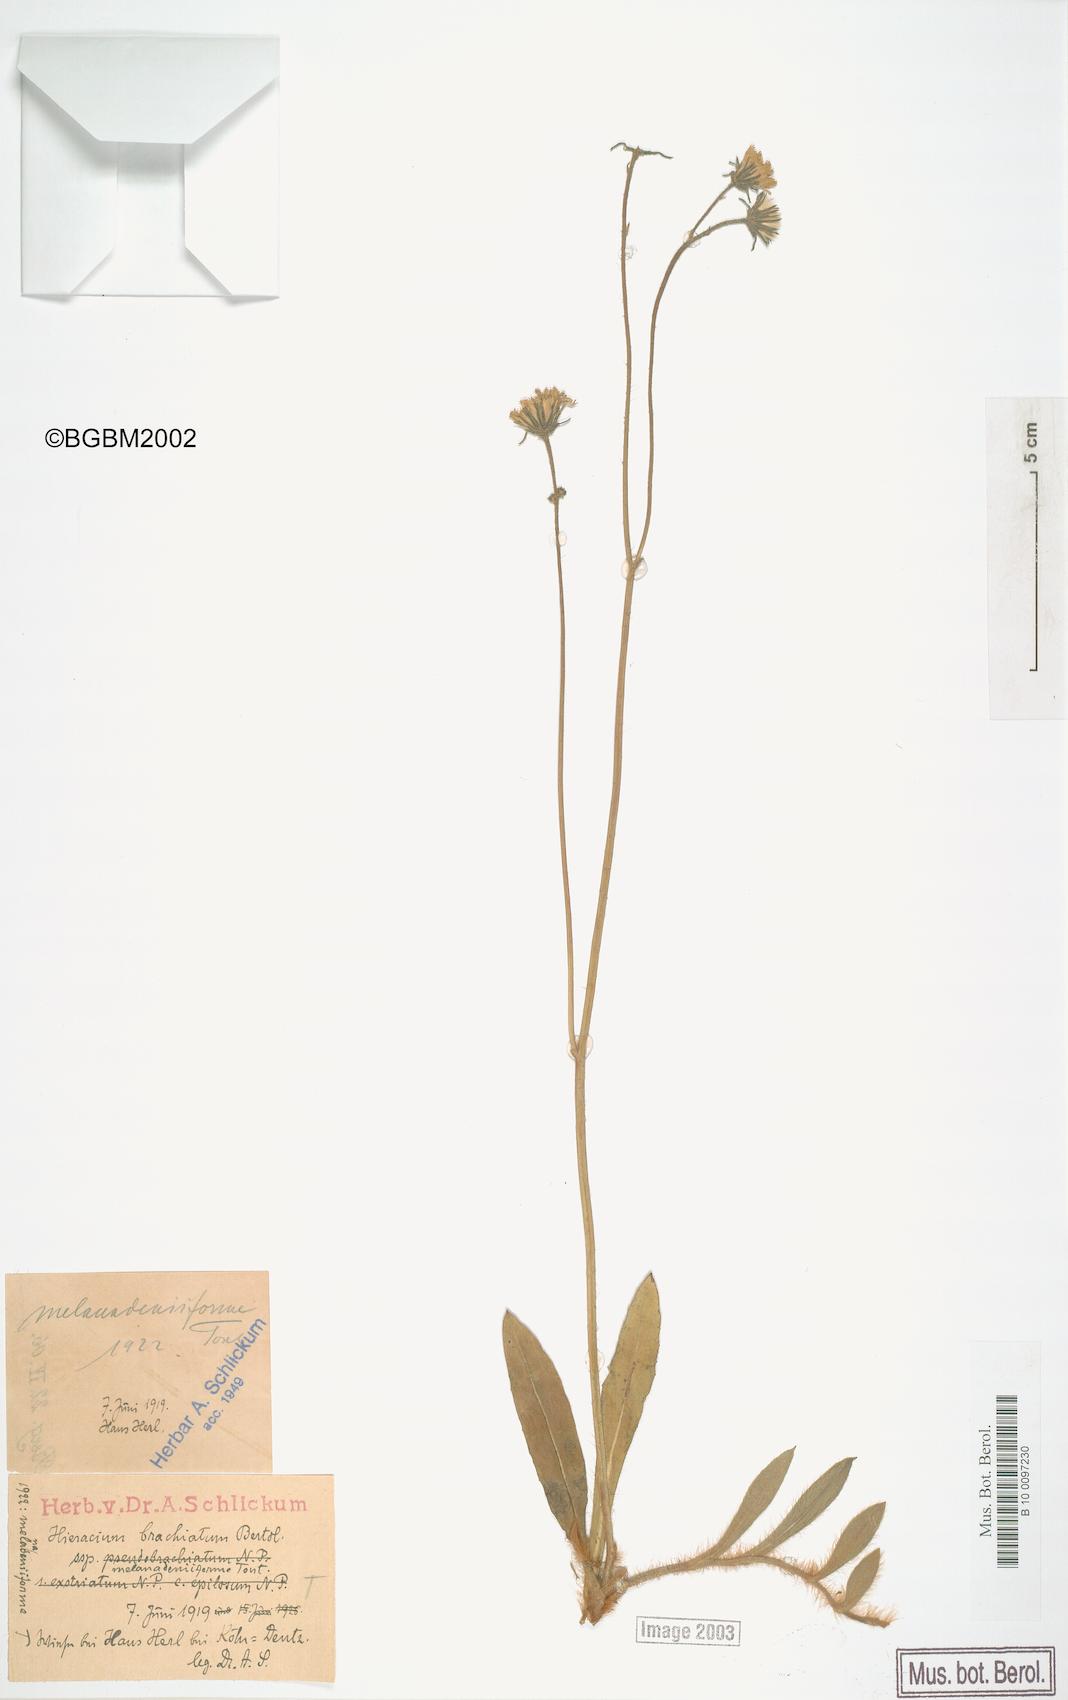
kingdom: Plantae
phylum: Tracheophyta
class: Magnoliopsida
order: Asterales
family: Asteraceae
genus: Pilosella
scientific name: Pilosella acutifolia
